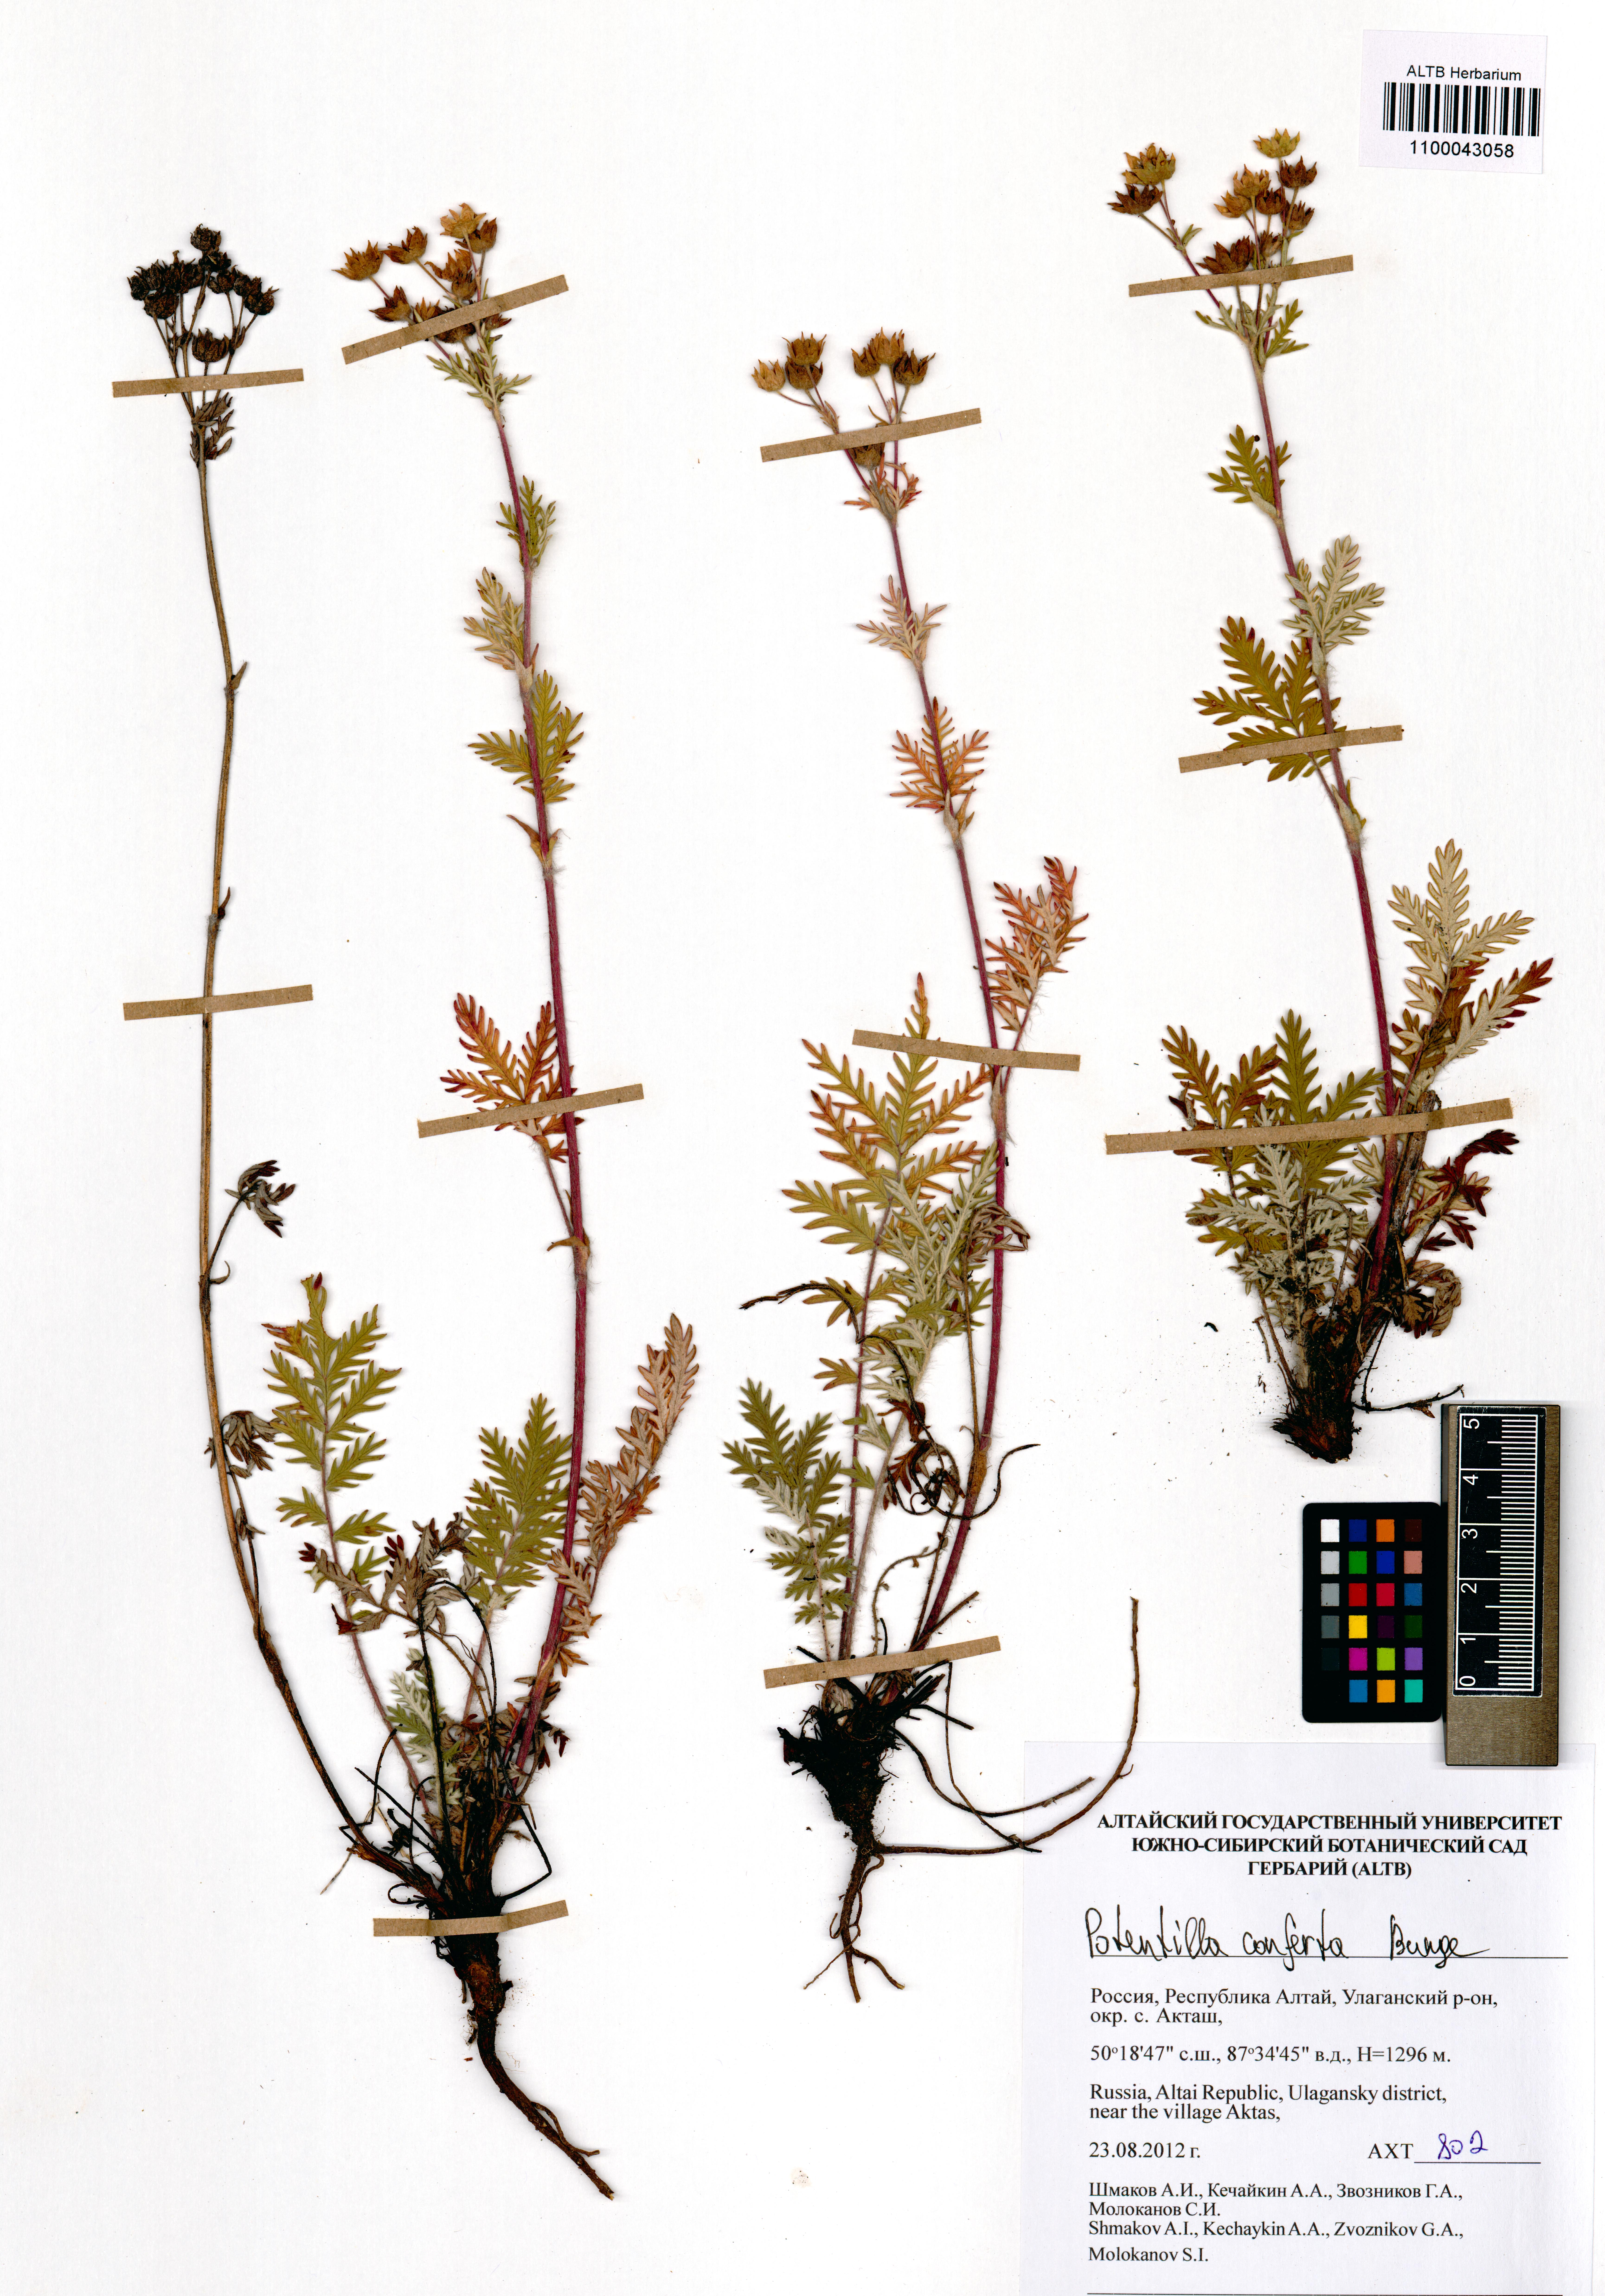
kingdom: Plantae
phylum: Tracheophyta
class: Magnoliopsida
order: Rosales
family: Rosaceae
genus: Potentilla
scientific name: Potentilla conferta
